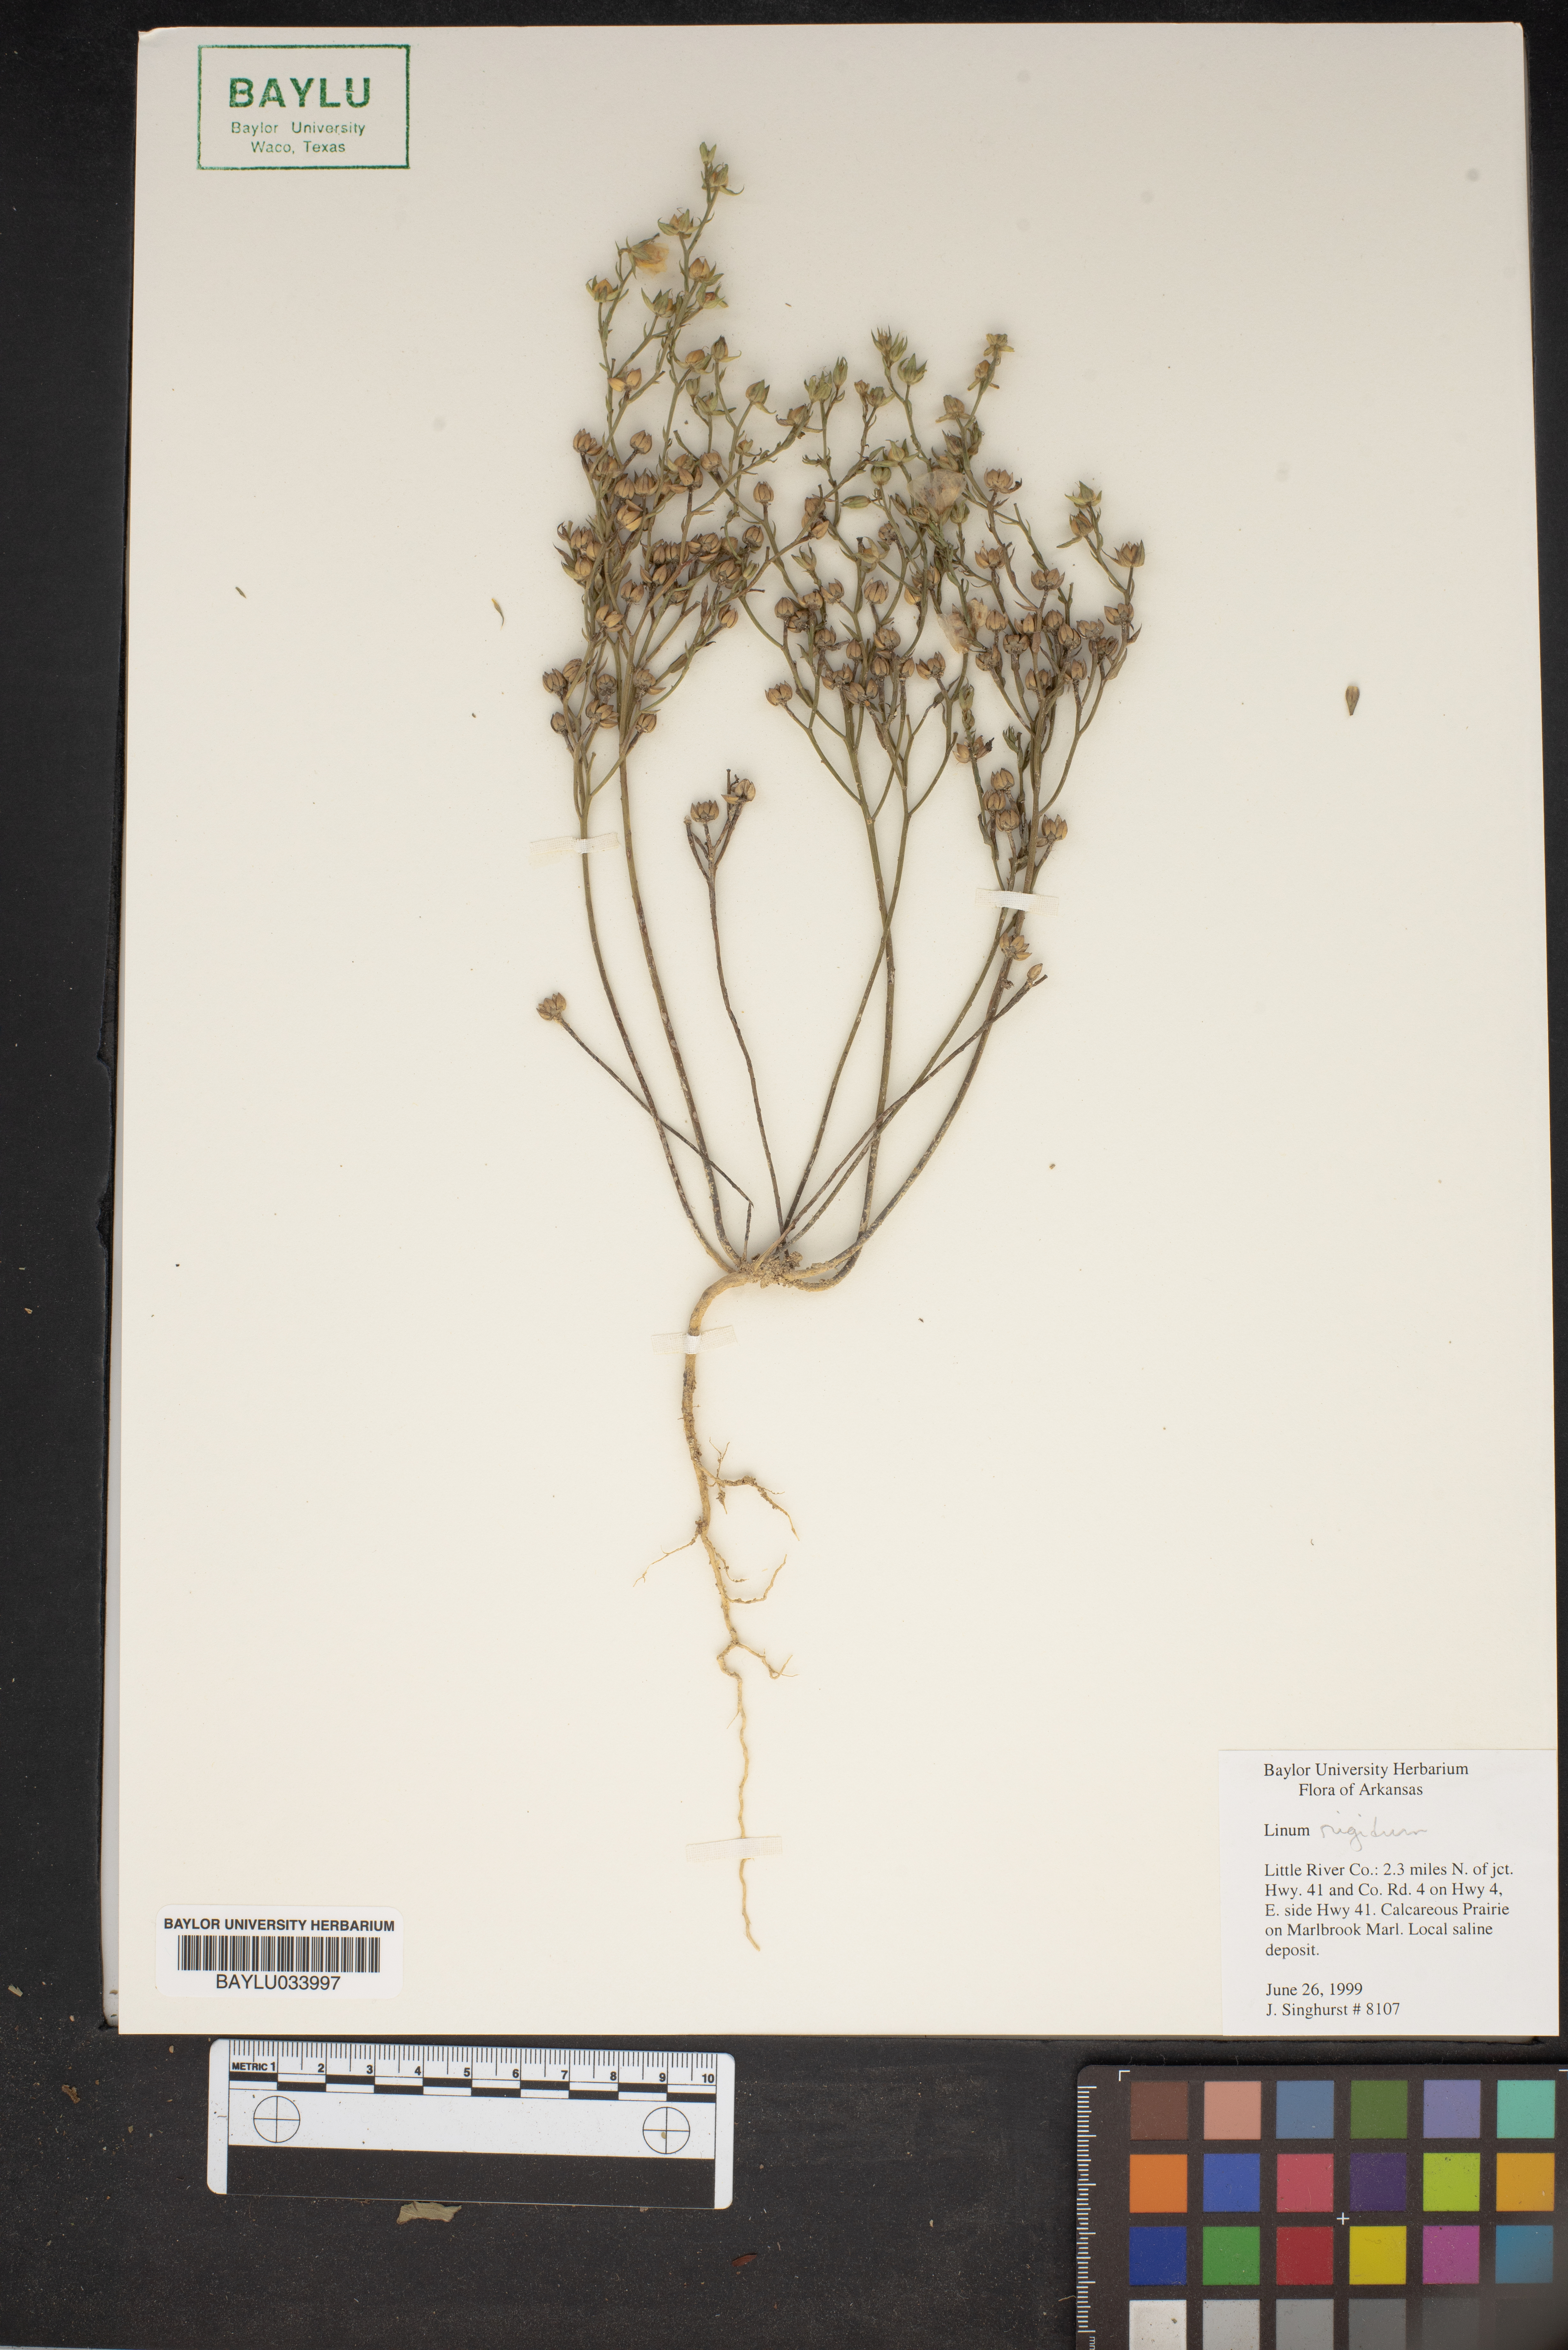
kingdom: Plantae
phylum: Tracheophyta
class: Magnoliopsida
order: Malpighiales
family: Linaceae
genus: Linum
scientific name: Linum rigidum
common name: Stiff-stem flax
